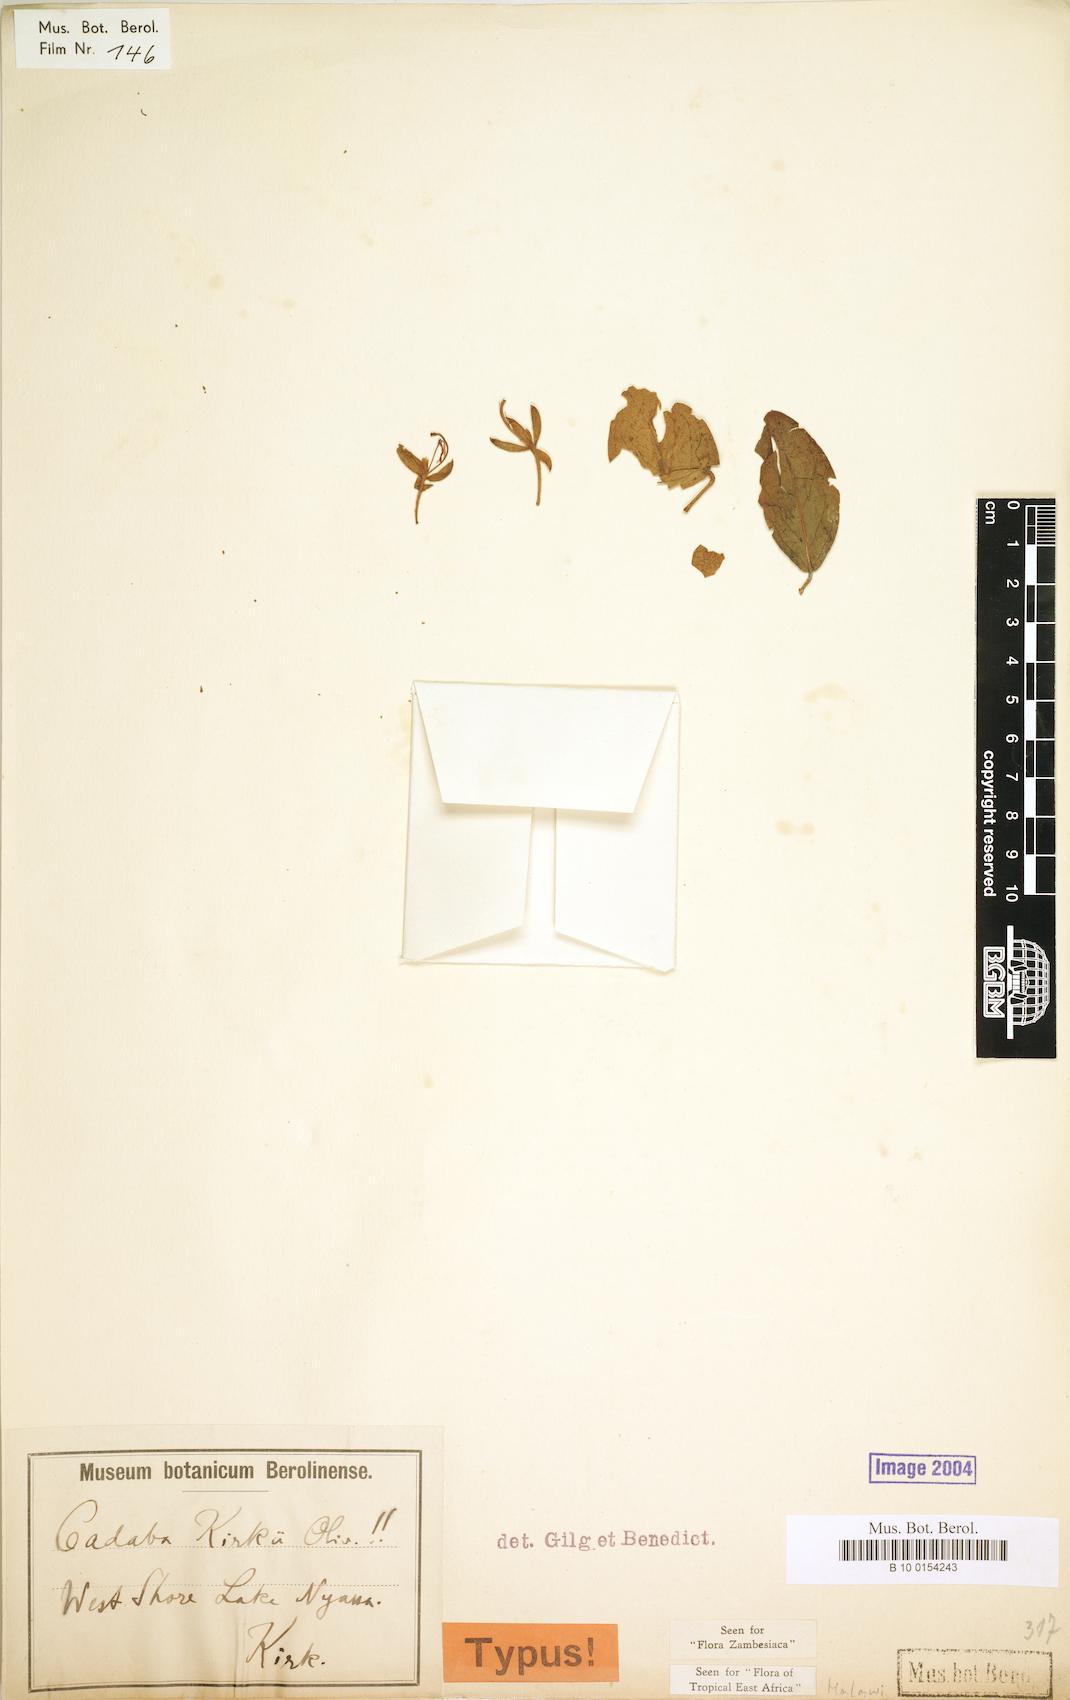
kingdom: Plantae
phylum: Tracheophyta
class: Magnoliopsida
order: Brassicales
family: Capparaceae
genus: Cadaba
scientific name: Cadaba kirkii
